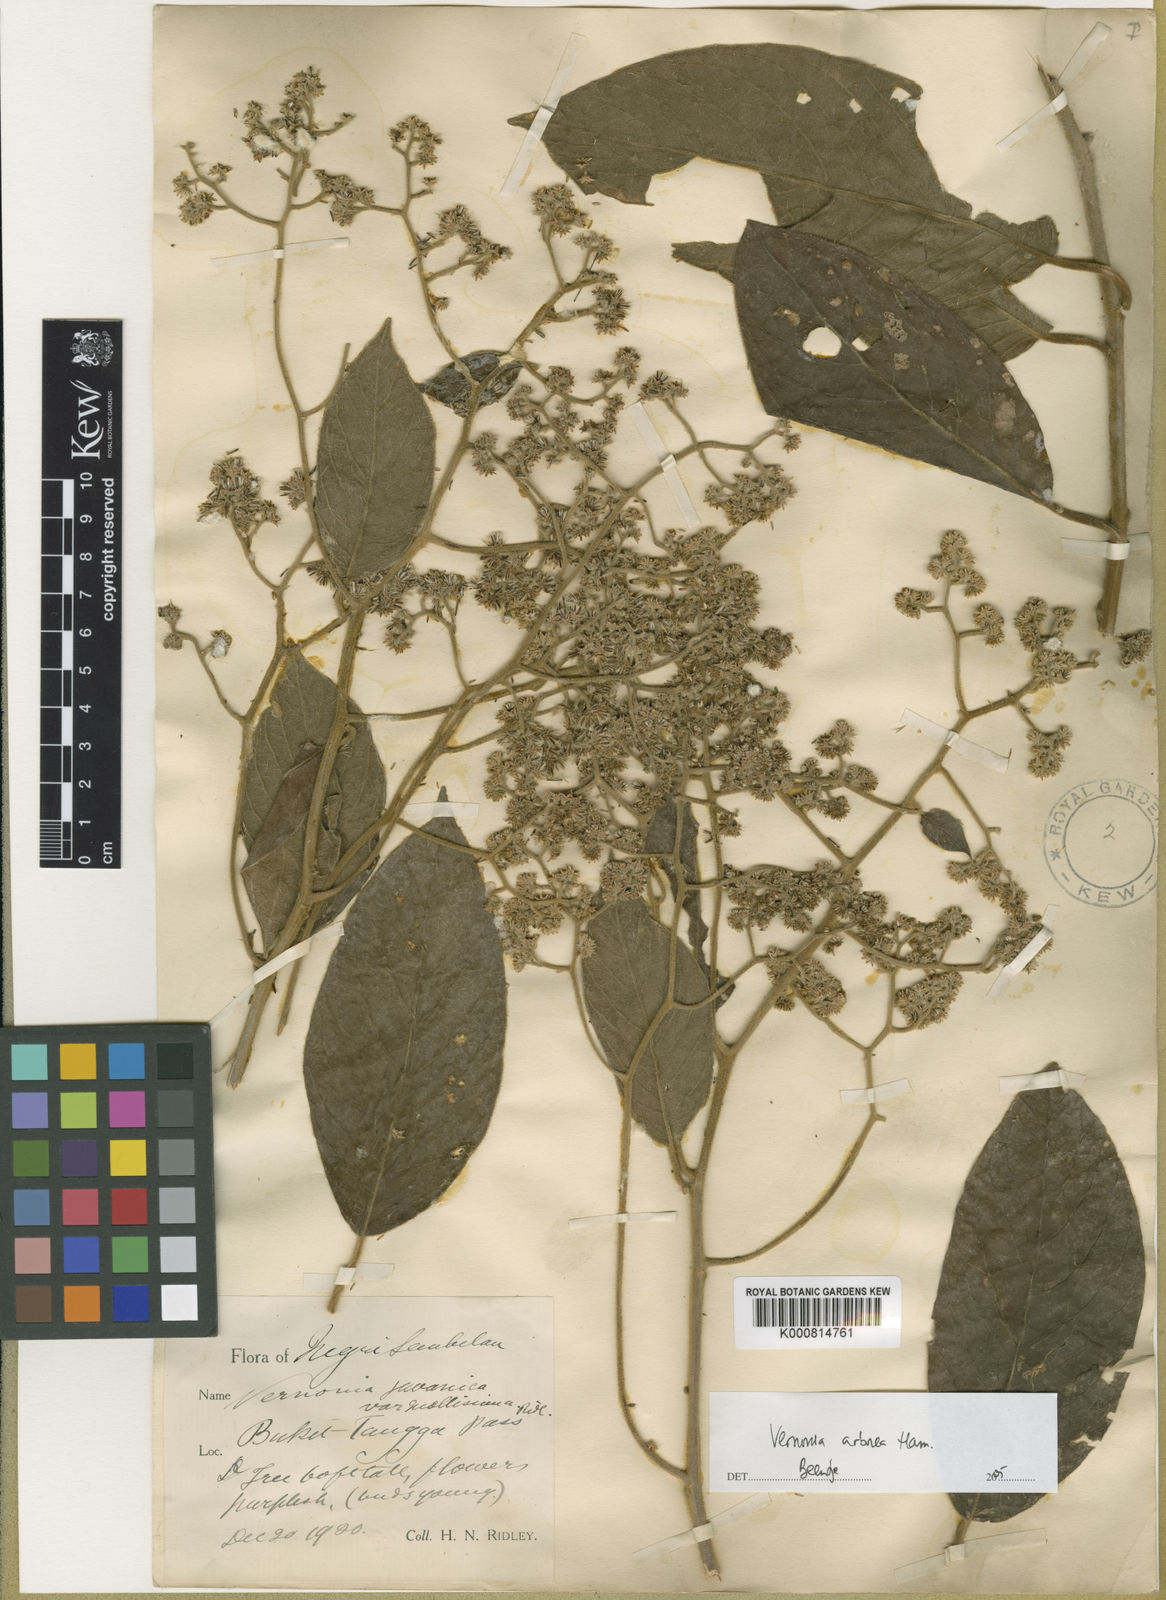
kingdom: Plantae
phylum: Tracheophyta
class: Magnoliopsida
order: Asterales
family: Asteraceae
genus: Strobocalyx
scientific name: Strobocalyx arborea
